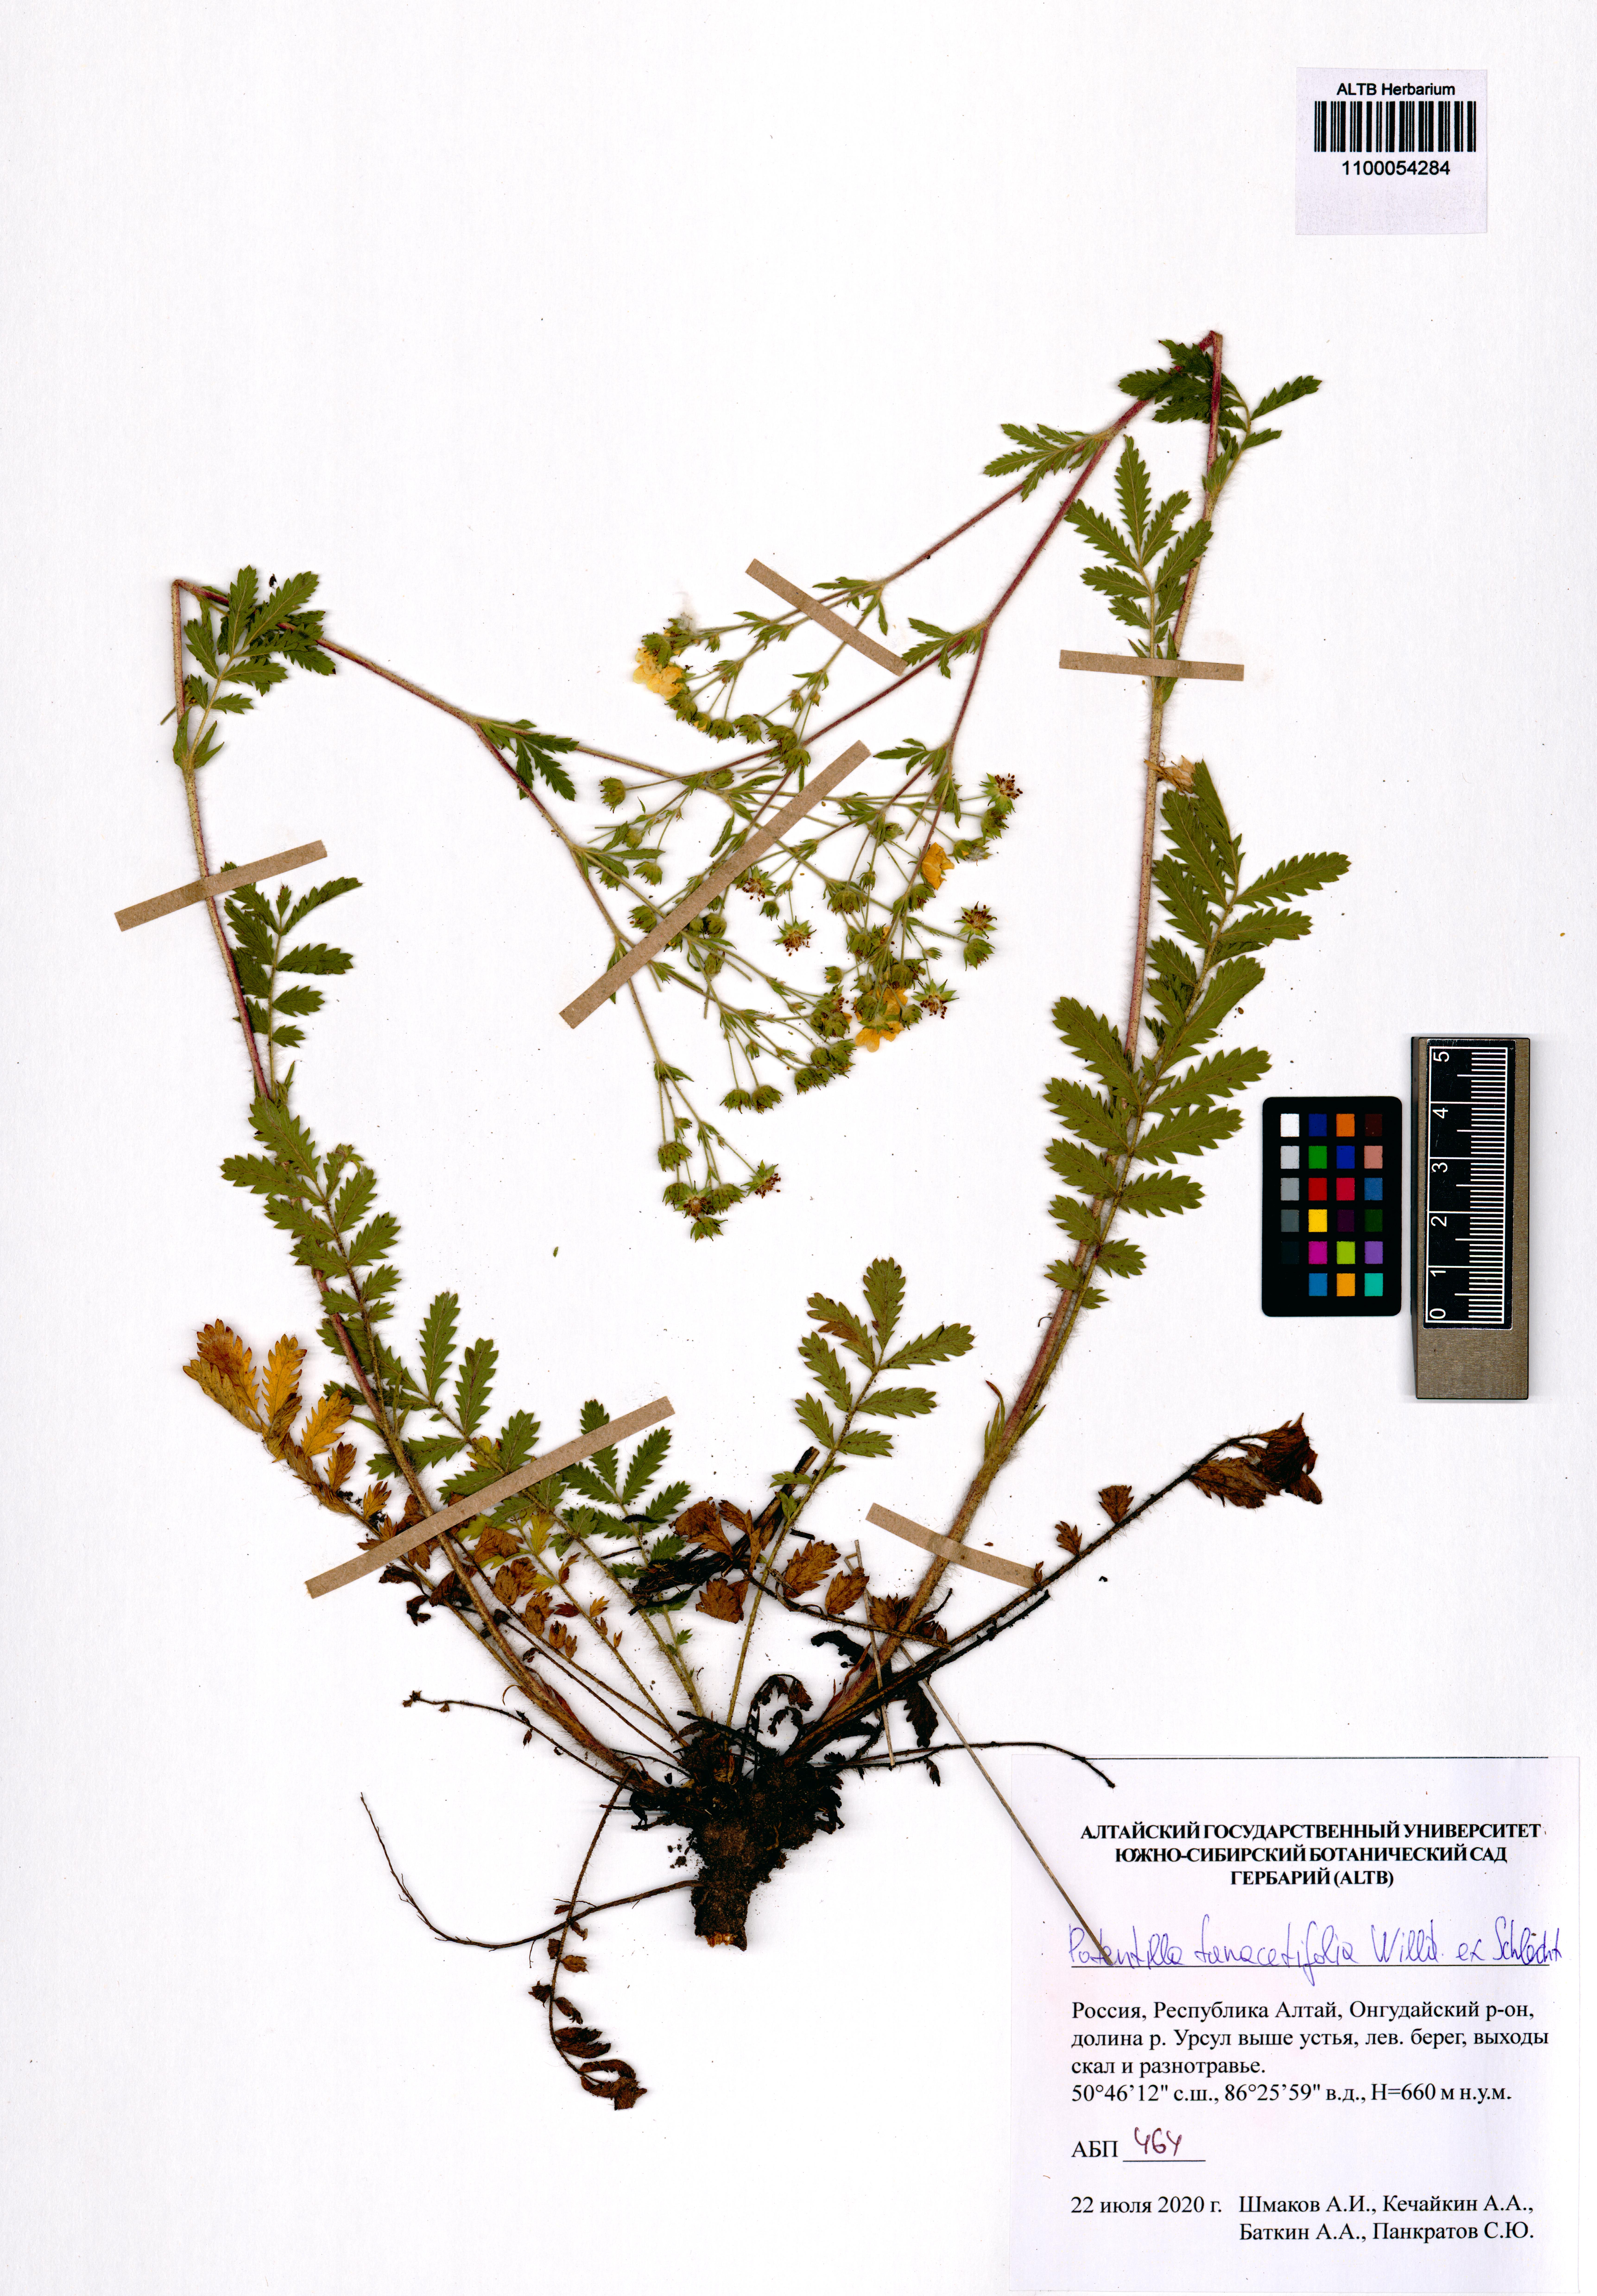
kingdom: Plantae
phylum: Tracheophyta
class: Magnoliopsida
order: Rosales
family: Rosaceae
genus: Potentilla
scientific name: Potentilla tanacetifolia
